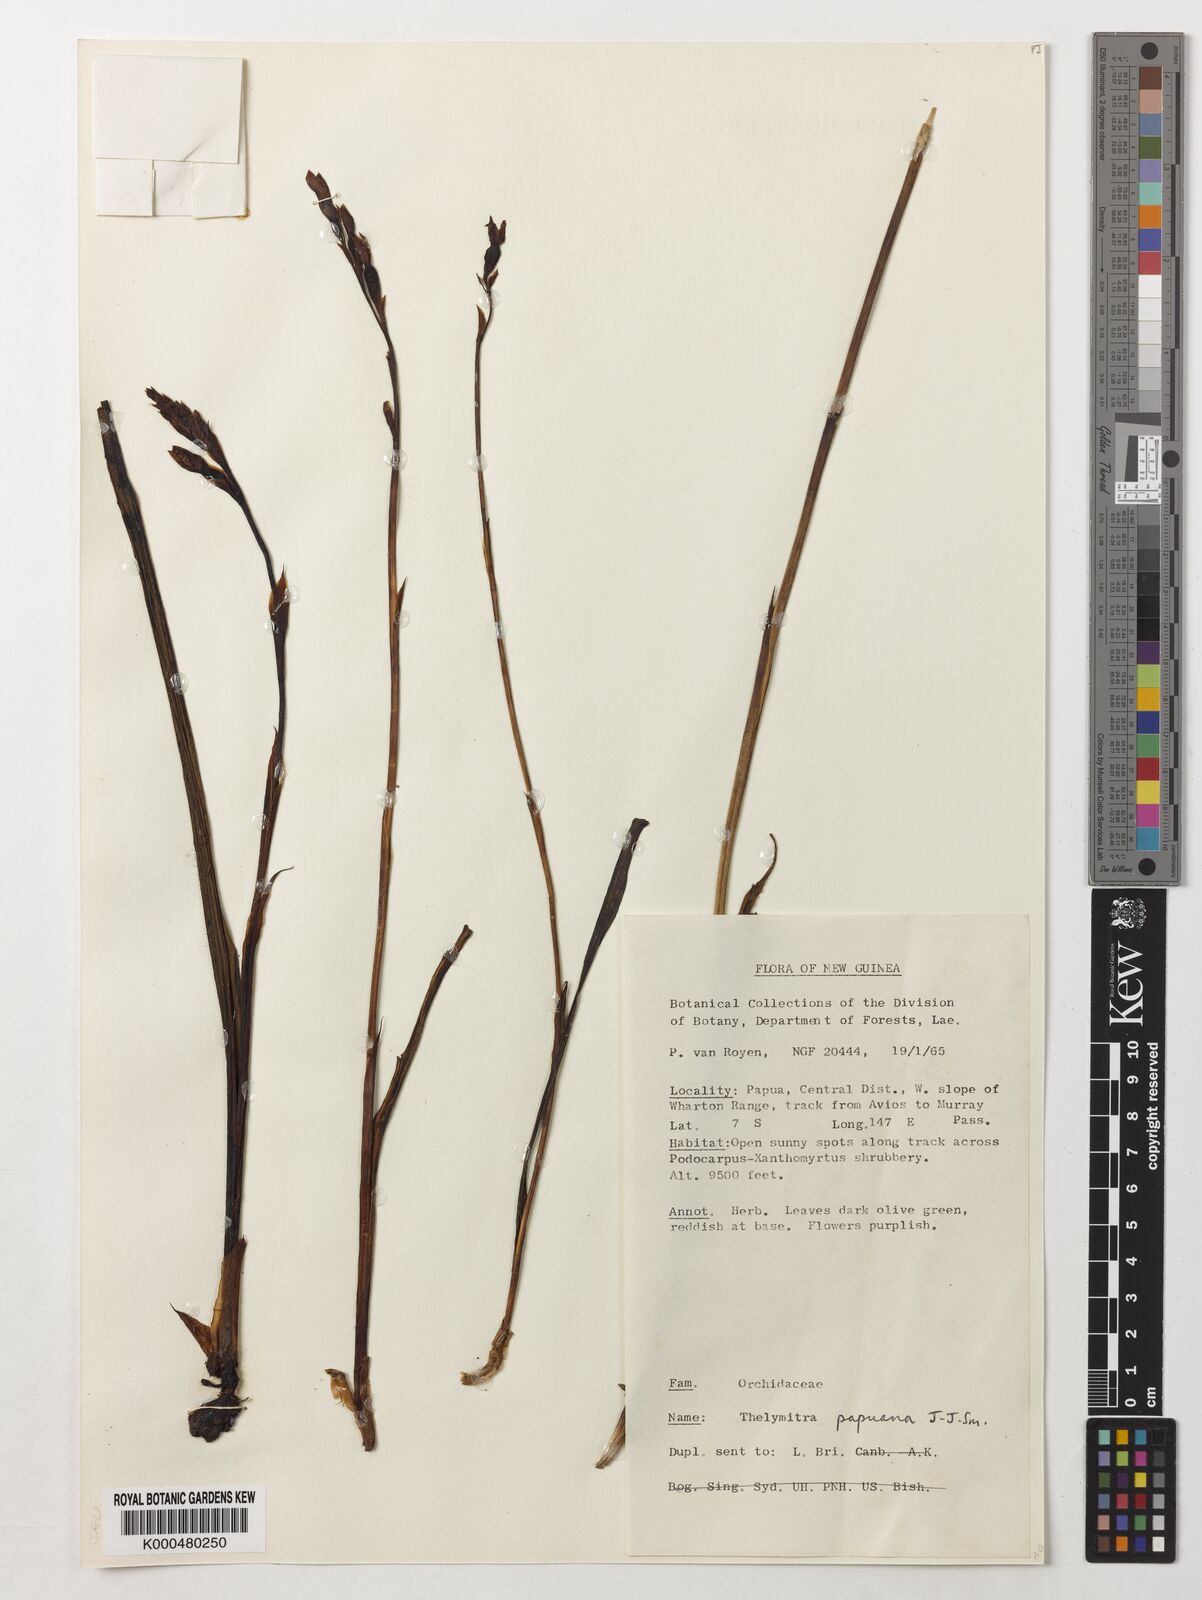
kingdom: Plantae
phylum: Tracheophyta
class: Liliopsida
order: Asparagales
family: Orchidaceae
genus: Thelymitra
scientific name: Thelymitra papuana
